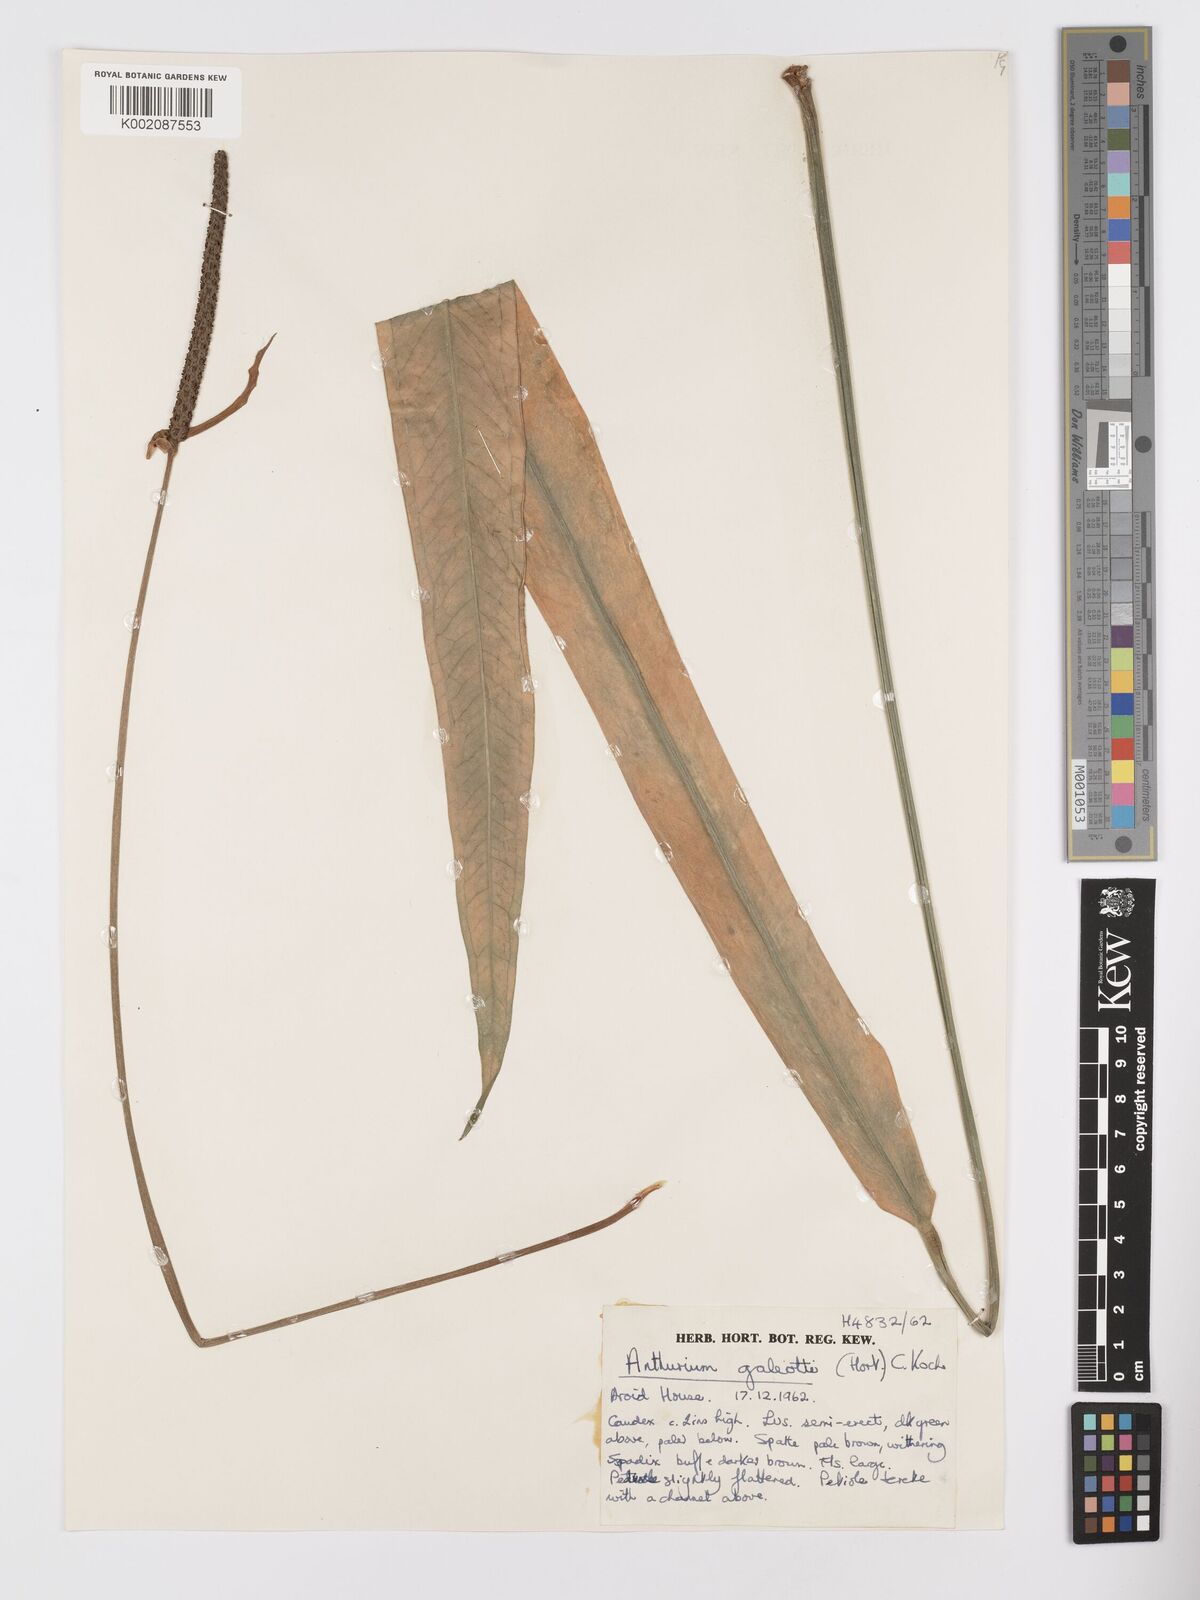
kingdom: Plantae
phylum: Tracheophyta
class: Liliopsida
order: Alismatales
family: Araceae
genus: Anthurium
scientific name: Anthurium galeottii
